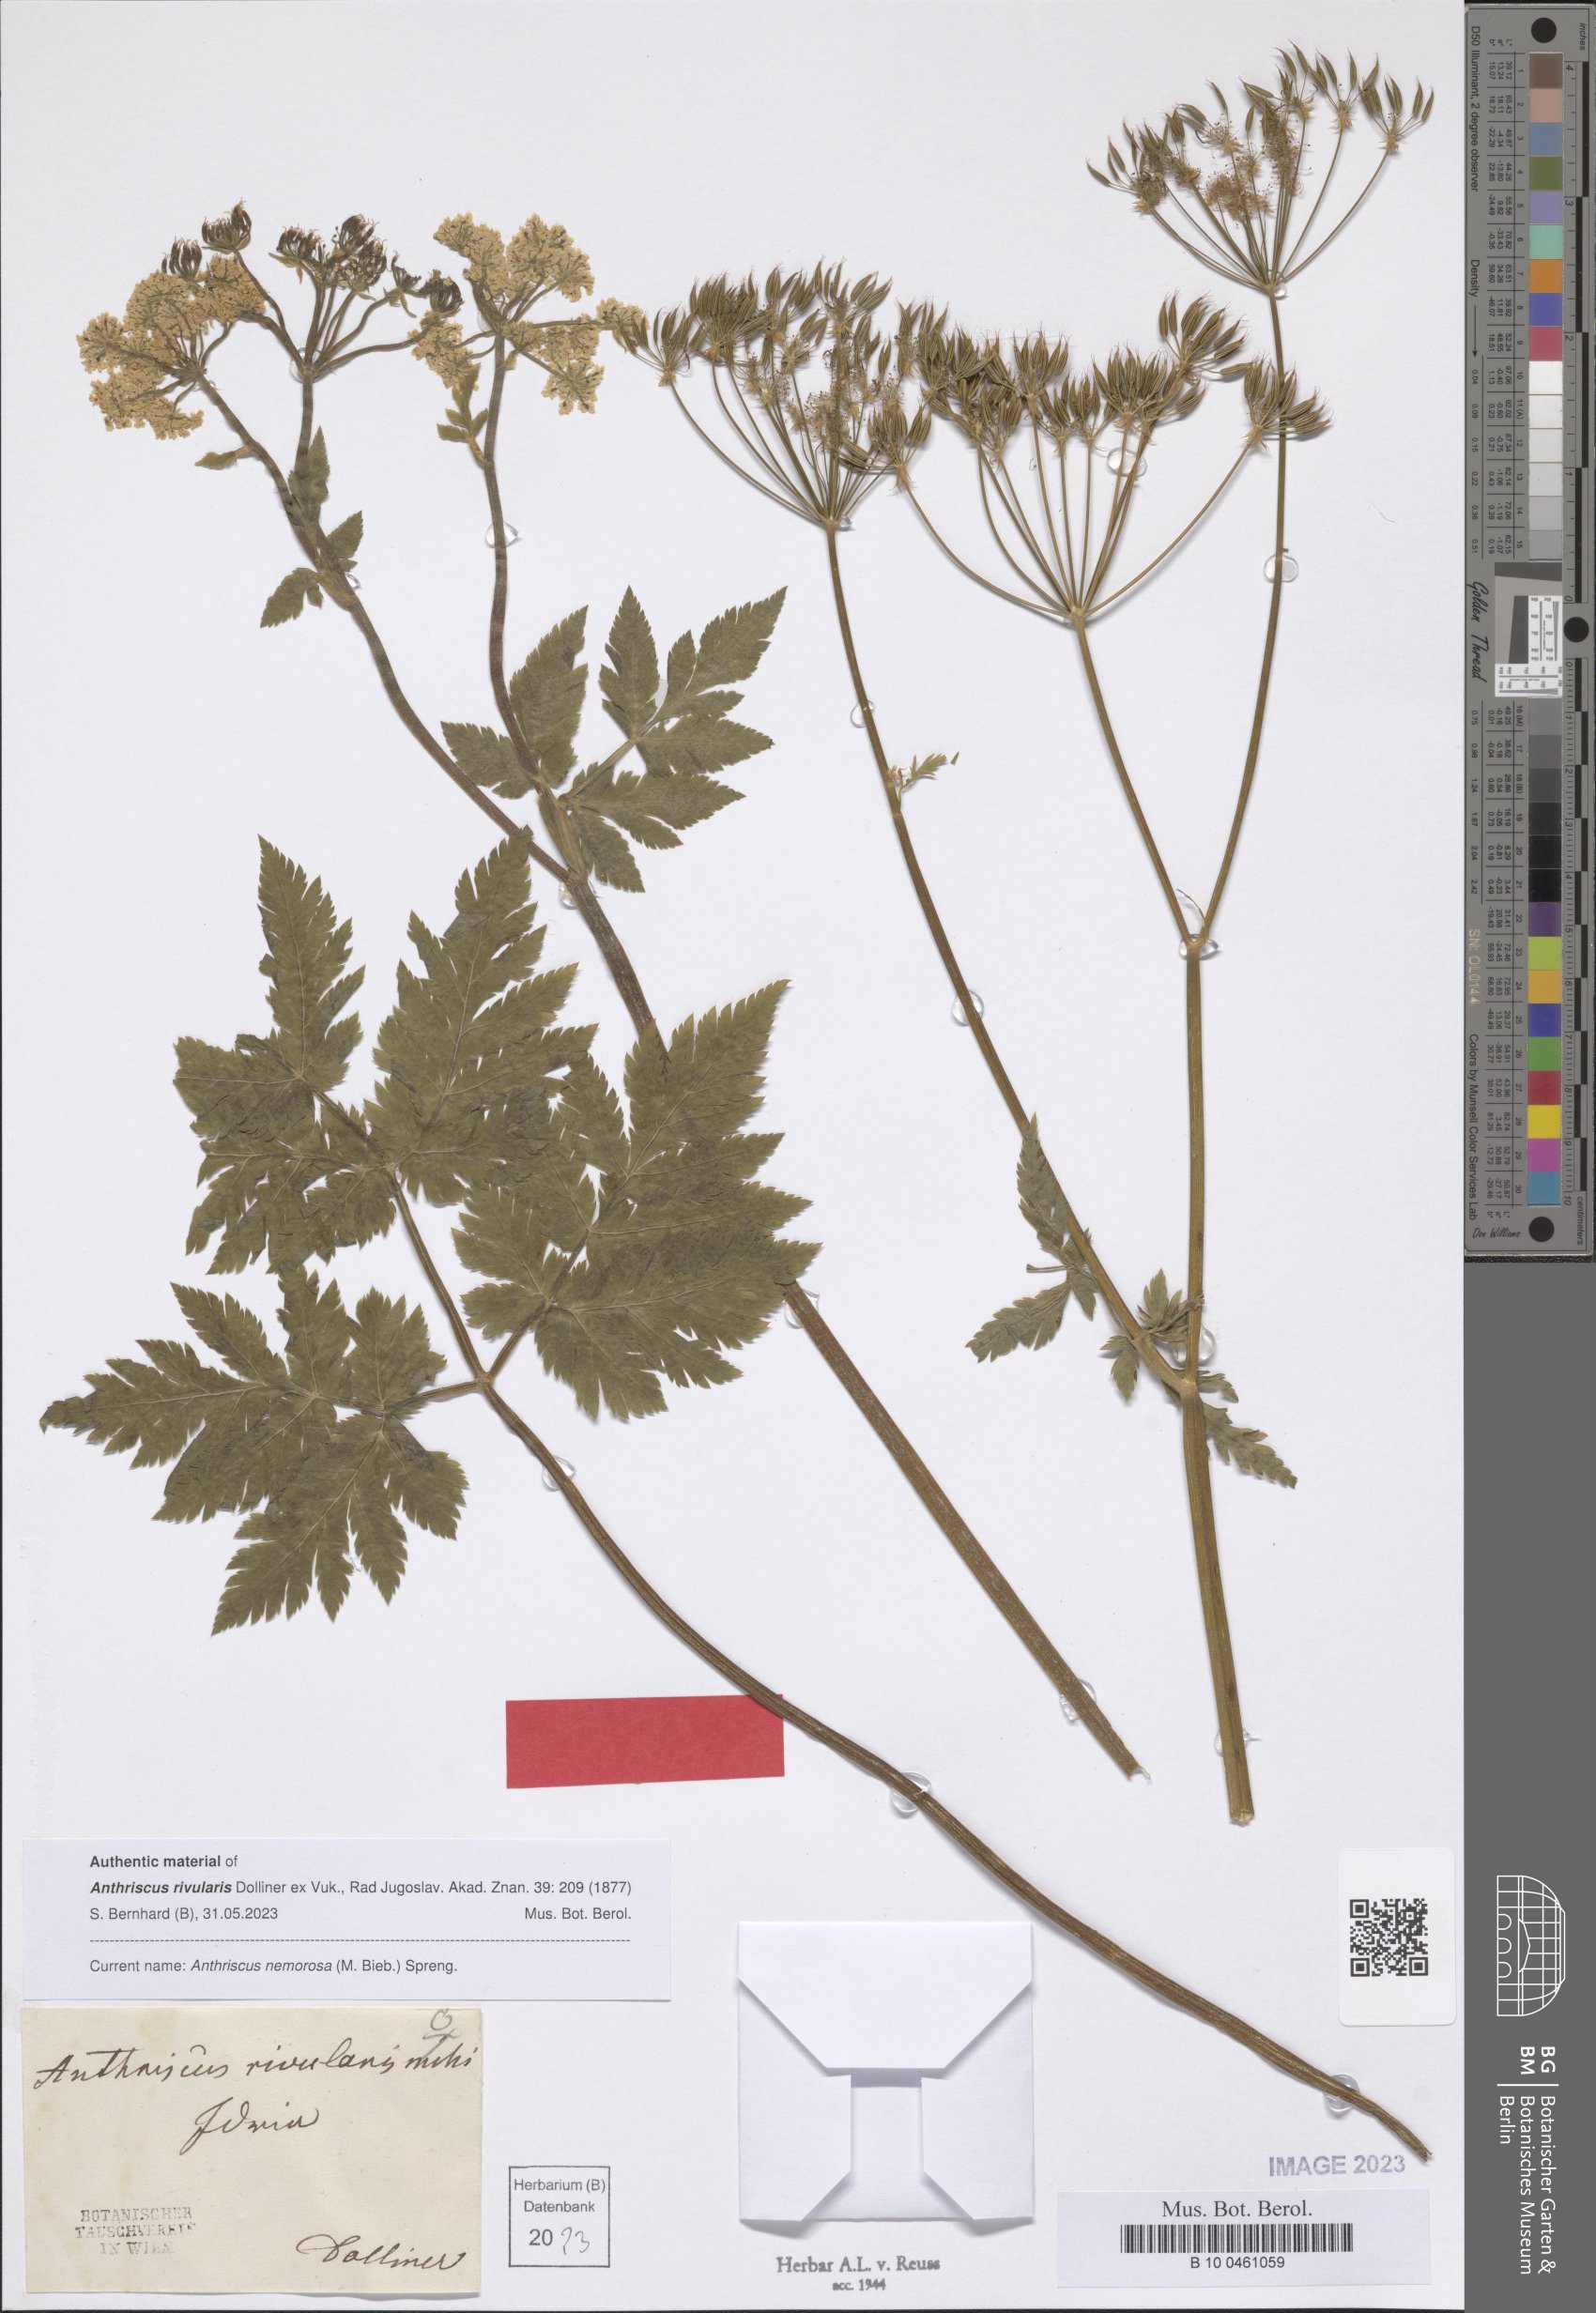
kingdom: Plantae
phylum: Tracheophyta
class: Magnoliopsida
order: Apiales
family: Apiaceae
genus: Anthriscus
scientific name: Anthriscus sylvestris
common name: Cow parsley
